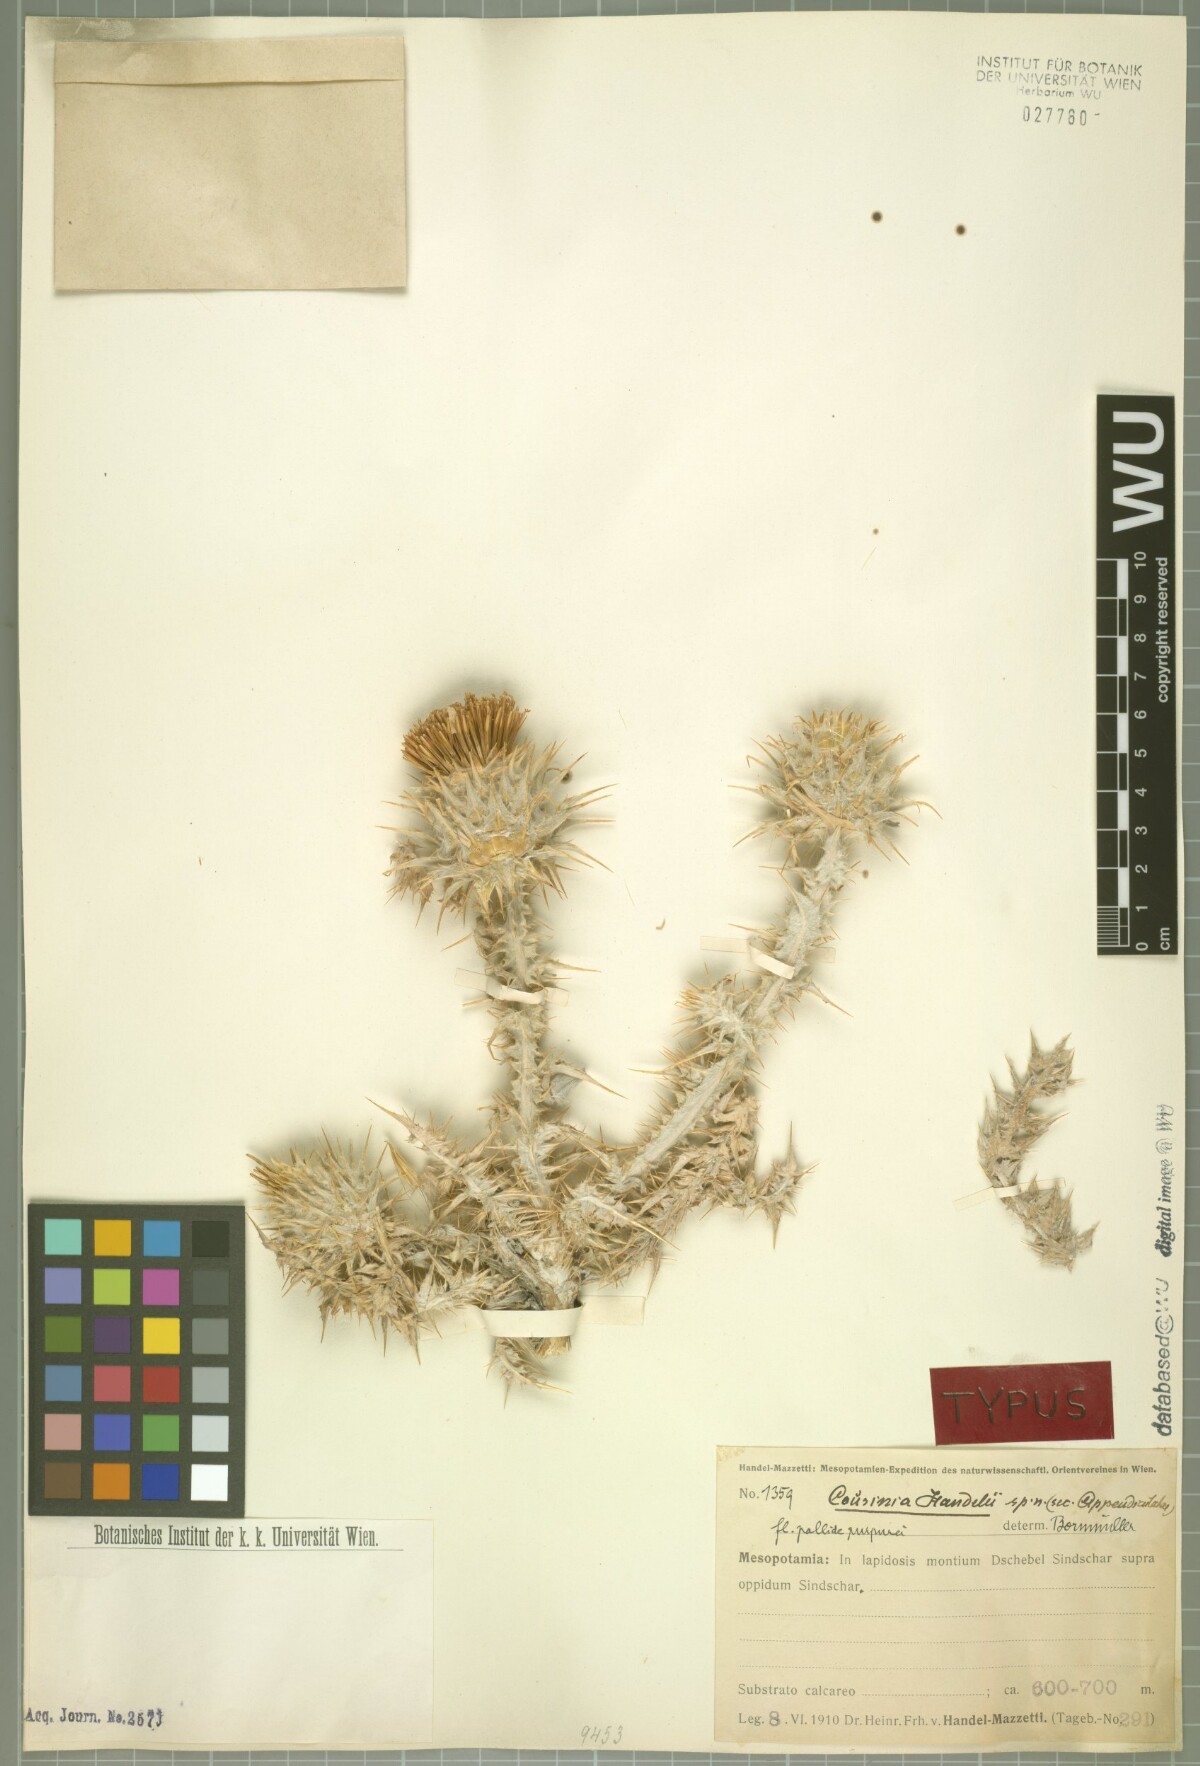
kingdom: Plantae
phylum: Tracheophyta
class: Magnoliopsida
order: Asterales
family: Asteraceae
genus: Cousinia
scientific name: Cousinia aintabensis
